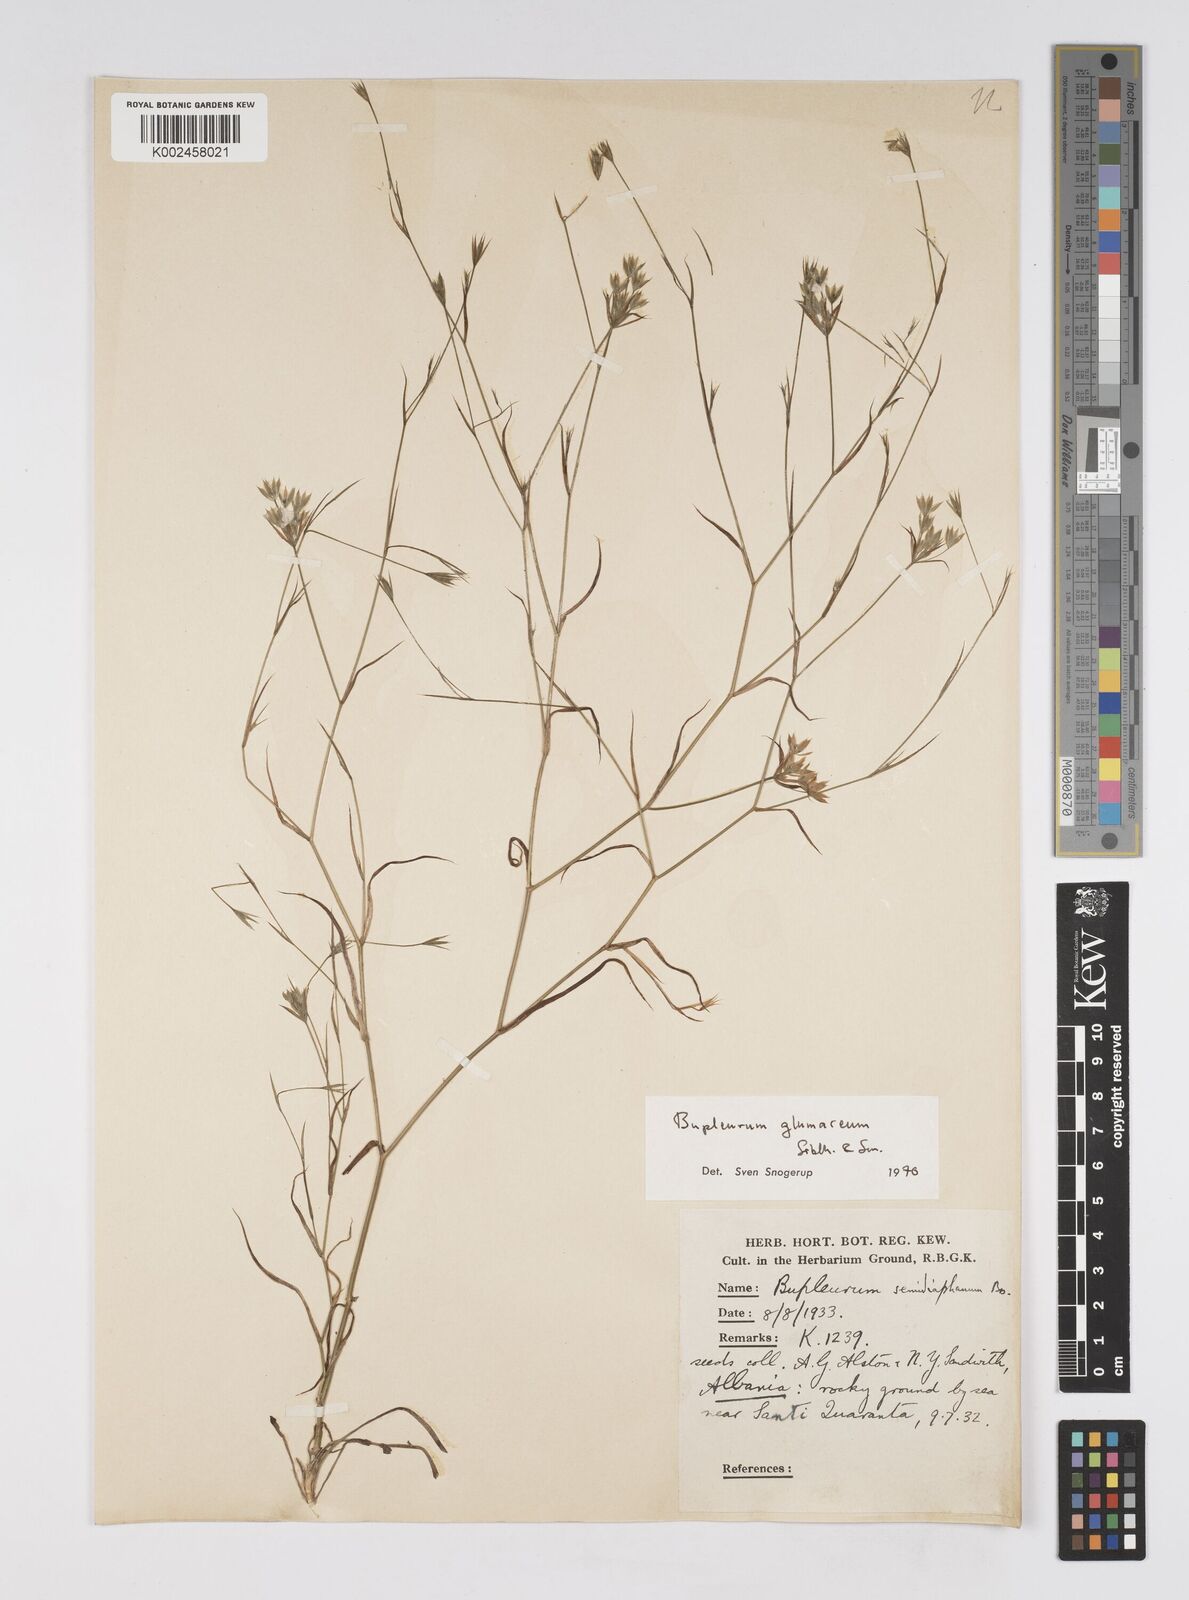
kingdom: Plantae
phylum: Tracheophyta
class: Magnoliopsida
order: Apiales
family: Apiaceae
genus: Bupleurum
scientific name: Bupleurum glumaceum
